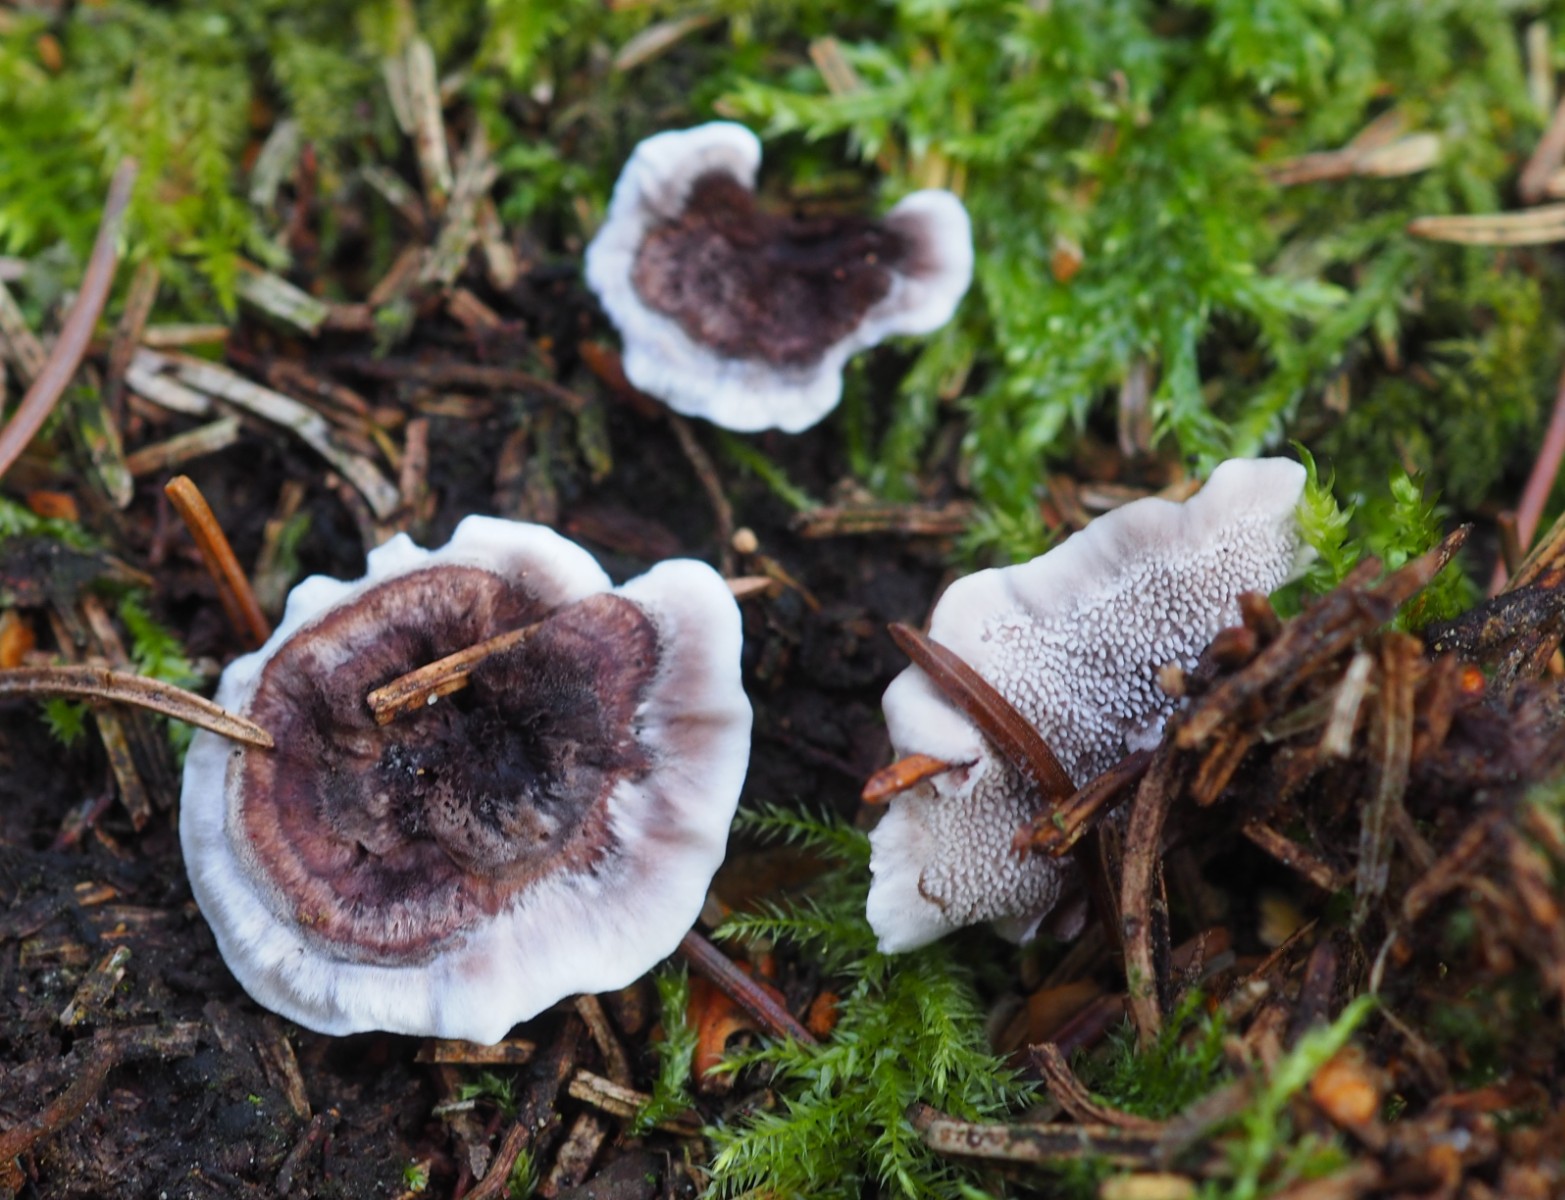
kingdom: Fungi
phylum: Basidiomycota
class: Agaricomycetes
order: Thelephorales
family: Thelephoraceae
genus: Phellodon
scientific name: Phellodon tomentosus
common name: vellugtende duftpigsvamp
